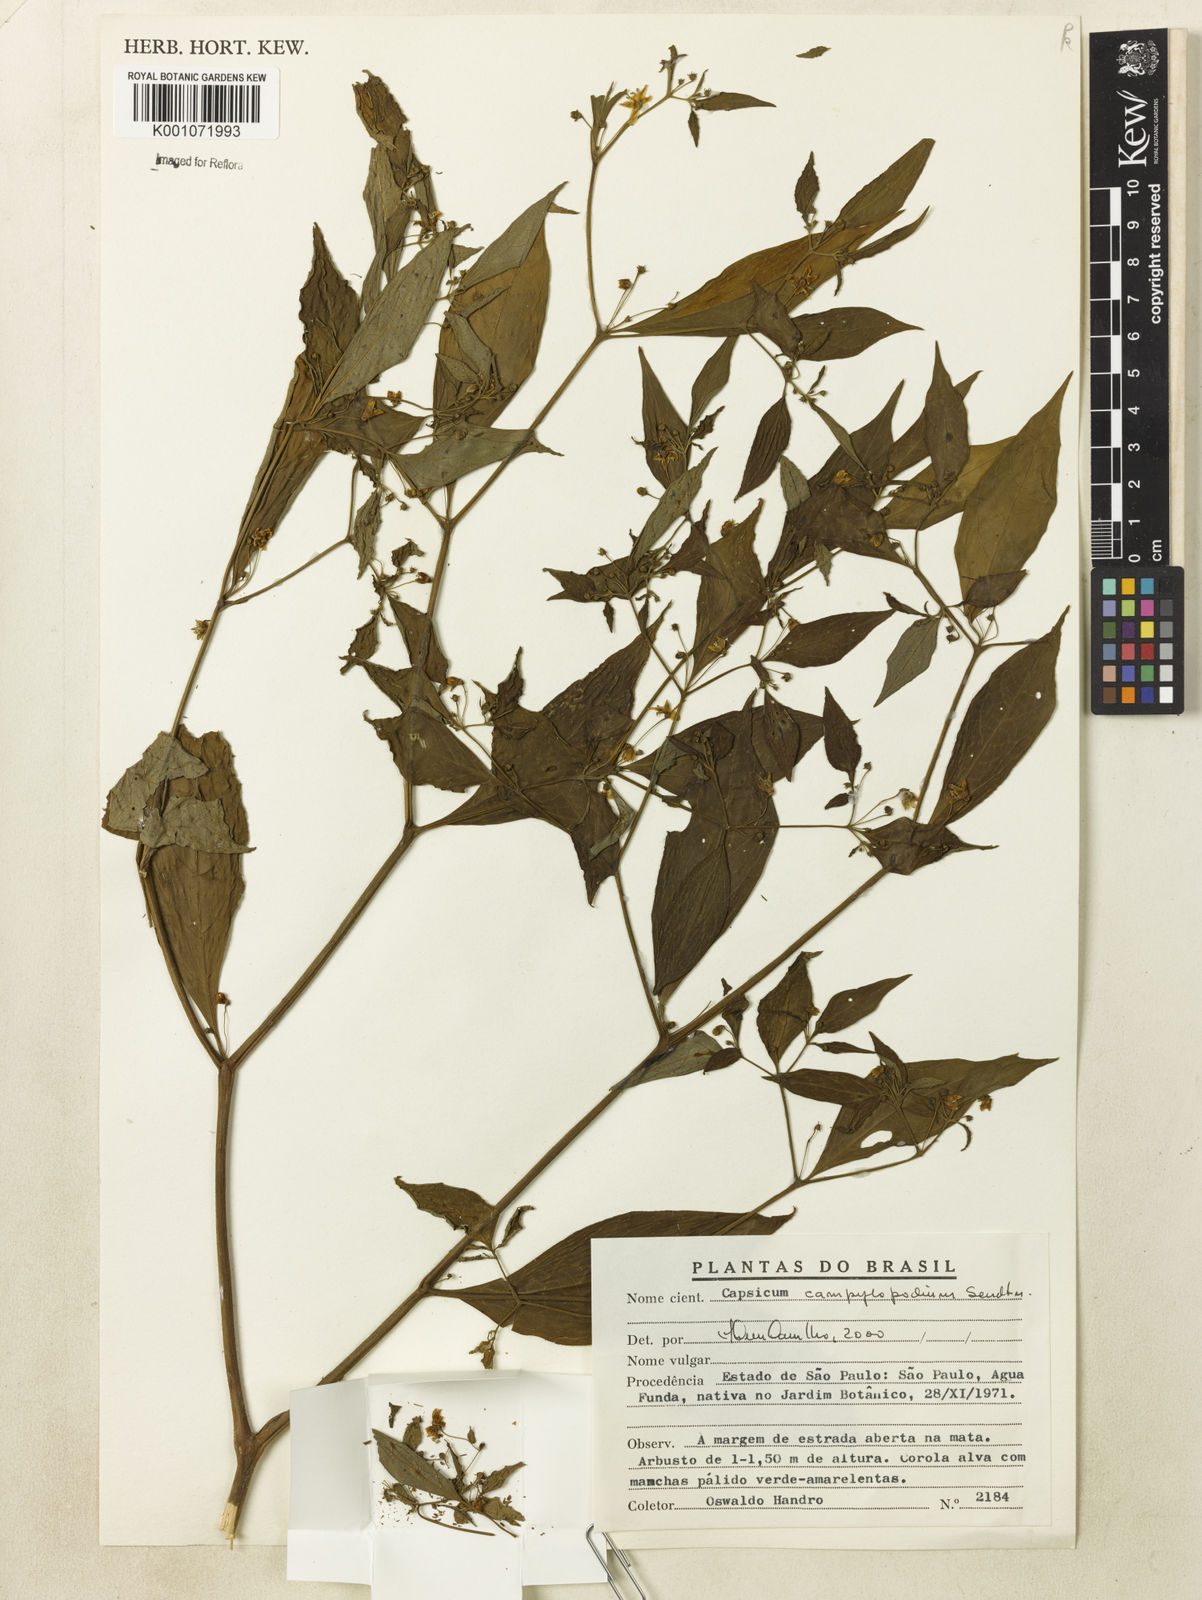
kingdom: Plantae
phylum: Tracheophyta
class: Magnoliopsida
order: Solanales
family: Solanaceae
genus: Capsicum
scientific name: Capsicum campylopodium
